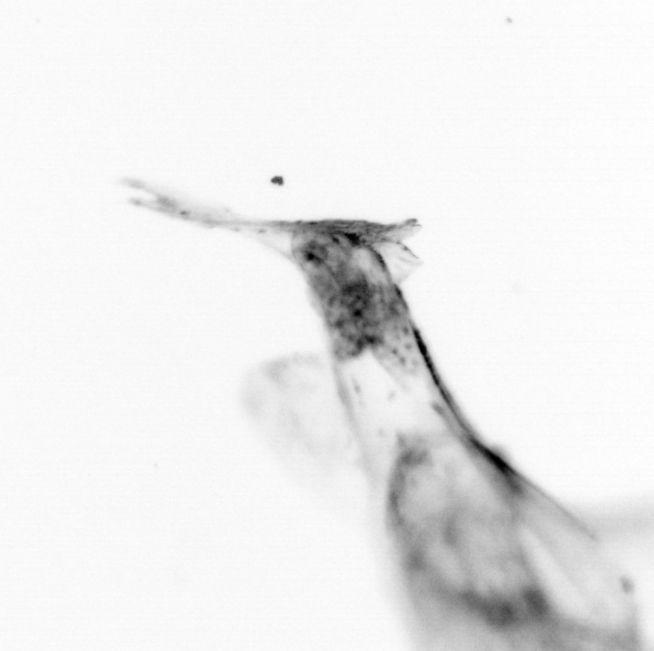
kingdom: Animalia
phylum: Chordata
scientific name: Chordata
